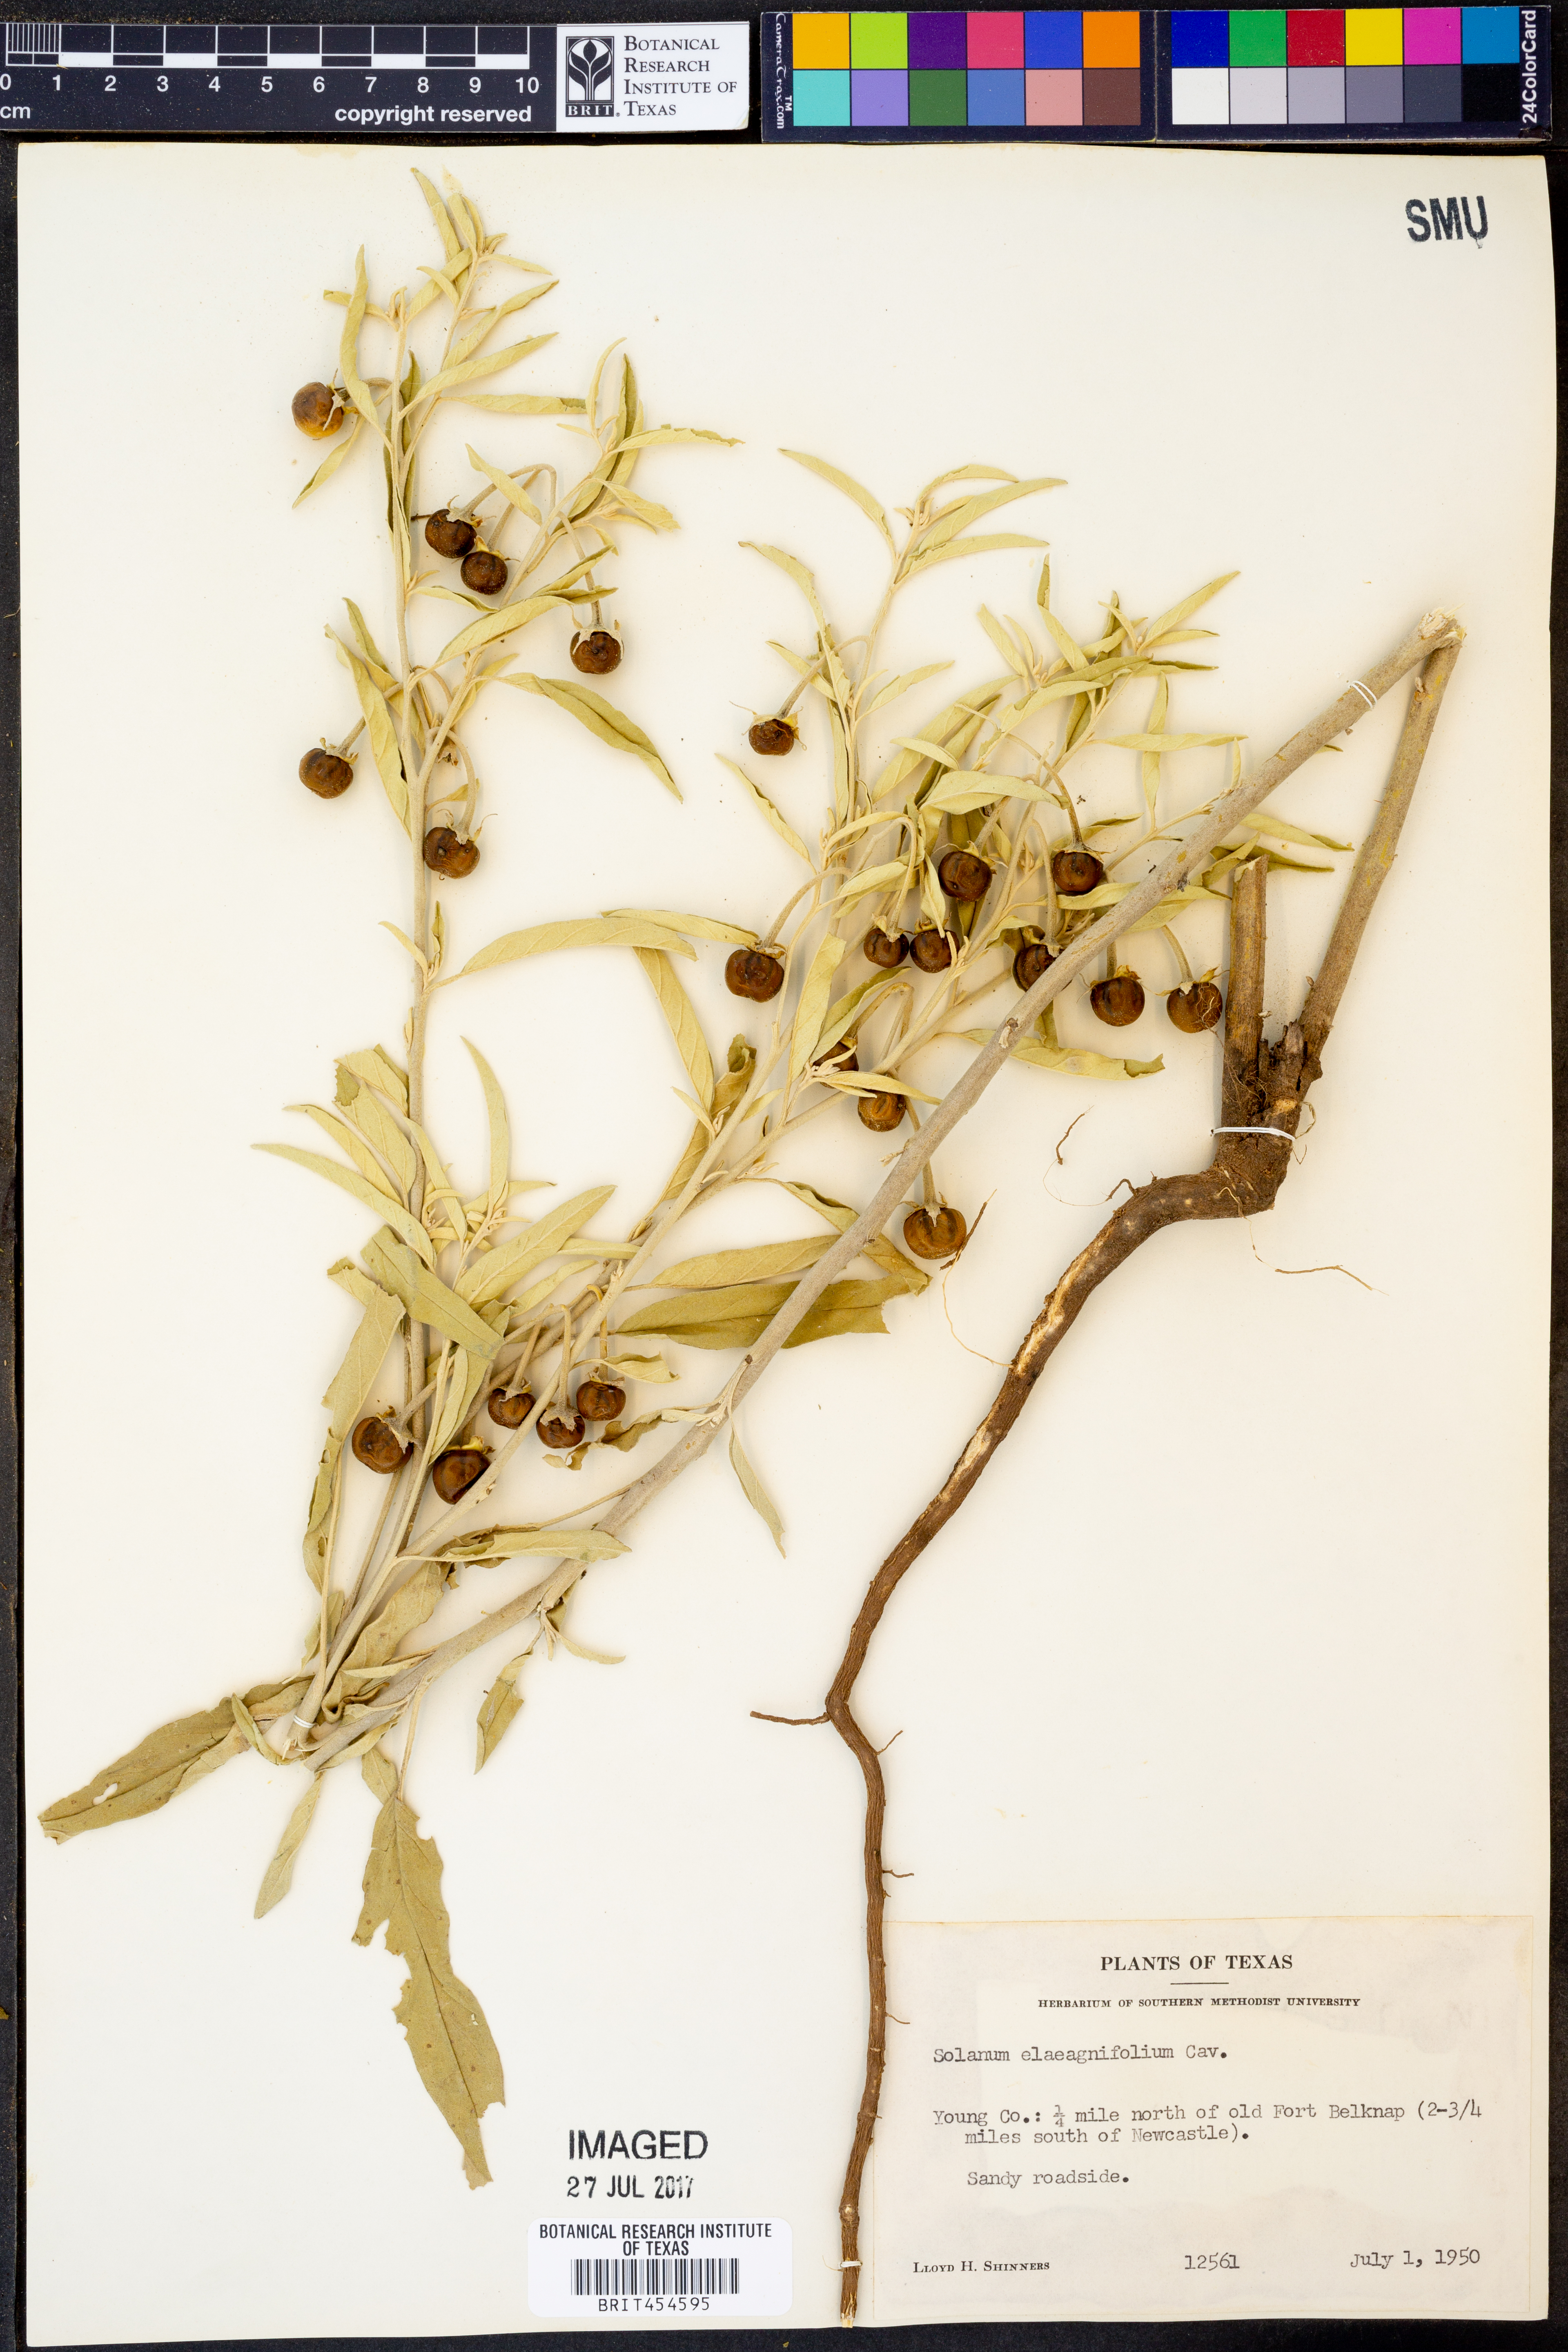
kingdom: Plantae
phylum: Tracheophyta
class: Magnoliopsida
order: Solanales
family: Solanaceae
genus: Solanum
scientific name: Solanum elaeagnifolium
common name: Silverleaf nightshade
